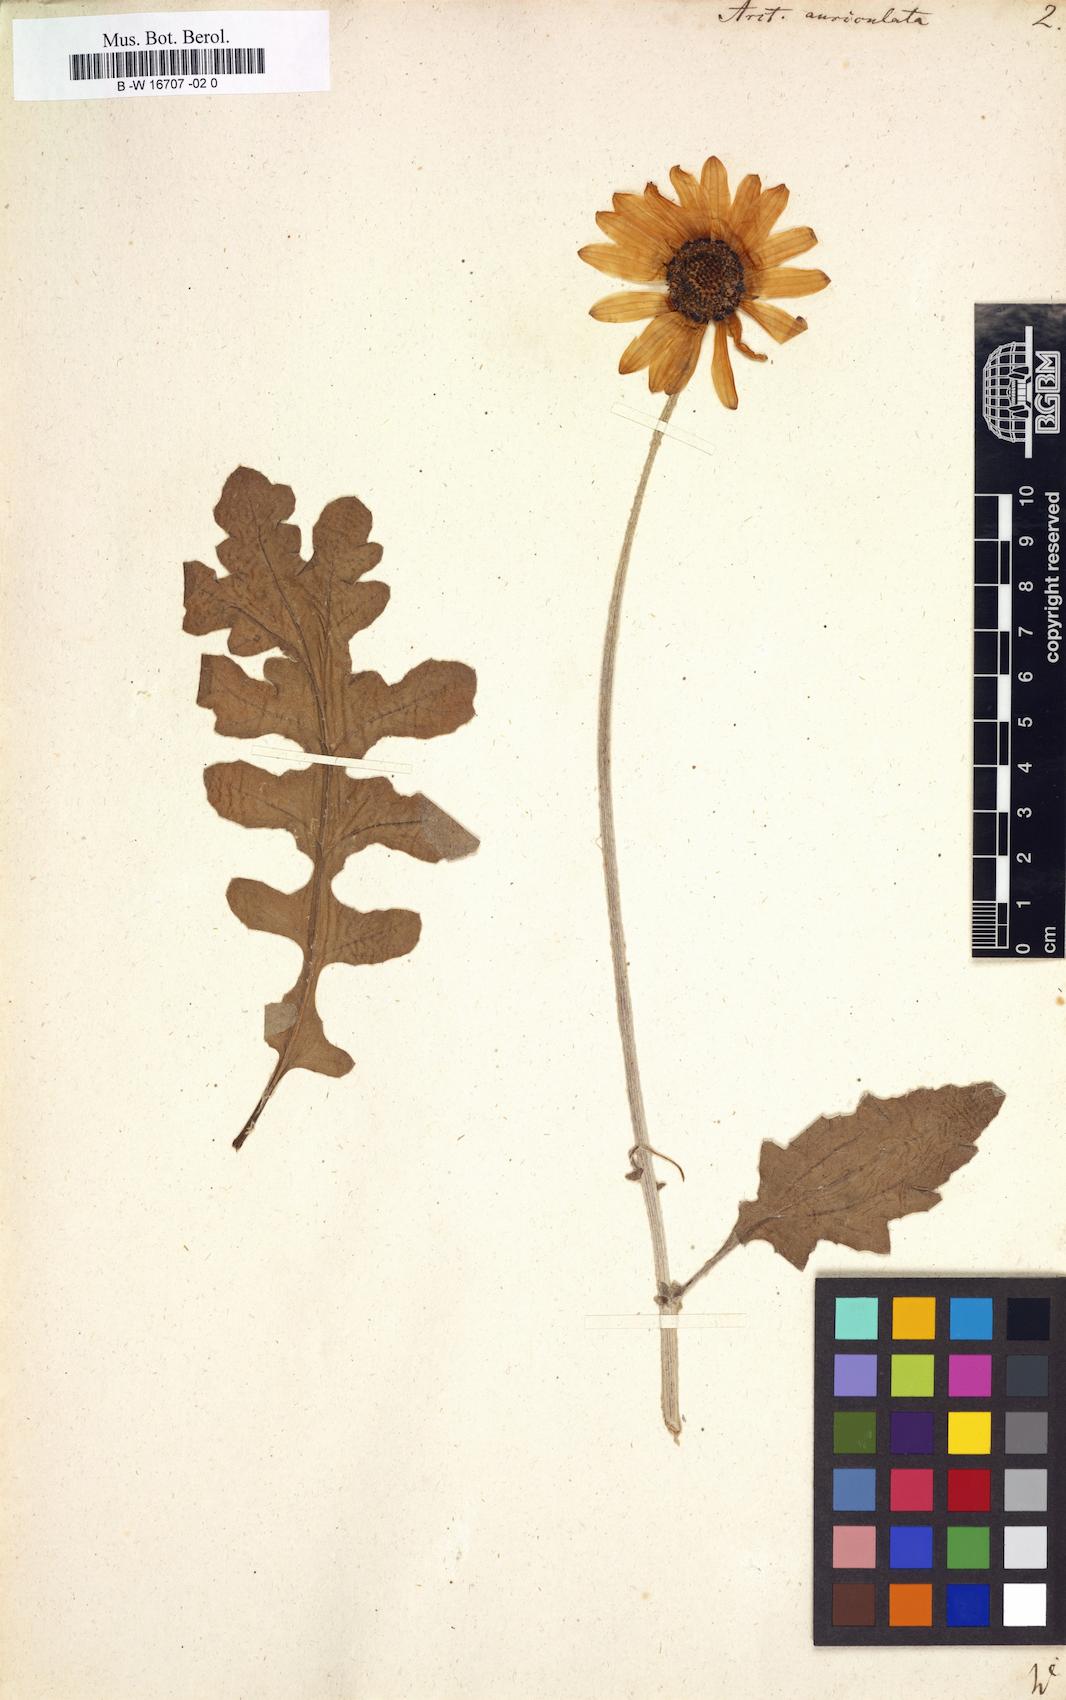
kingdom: Plantae
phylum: Tracheophyta
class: Magnoliopsida
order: Asterales
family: Asteraceae
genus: Arctotis
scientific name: Arctotis auriculata
